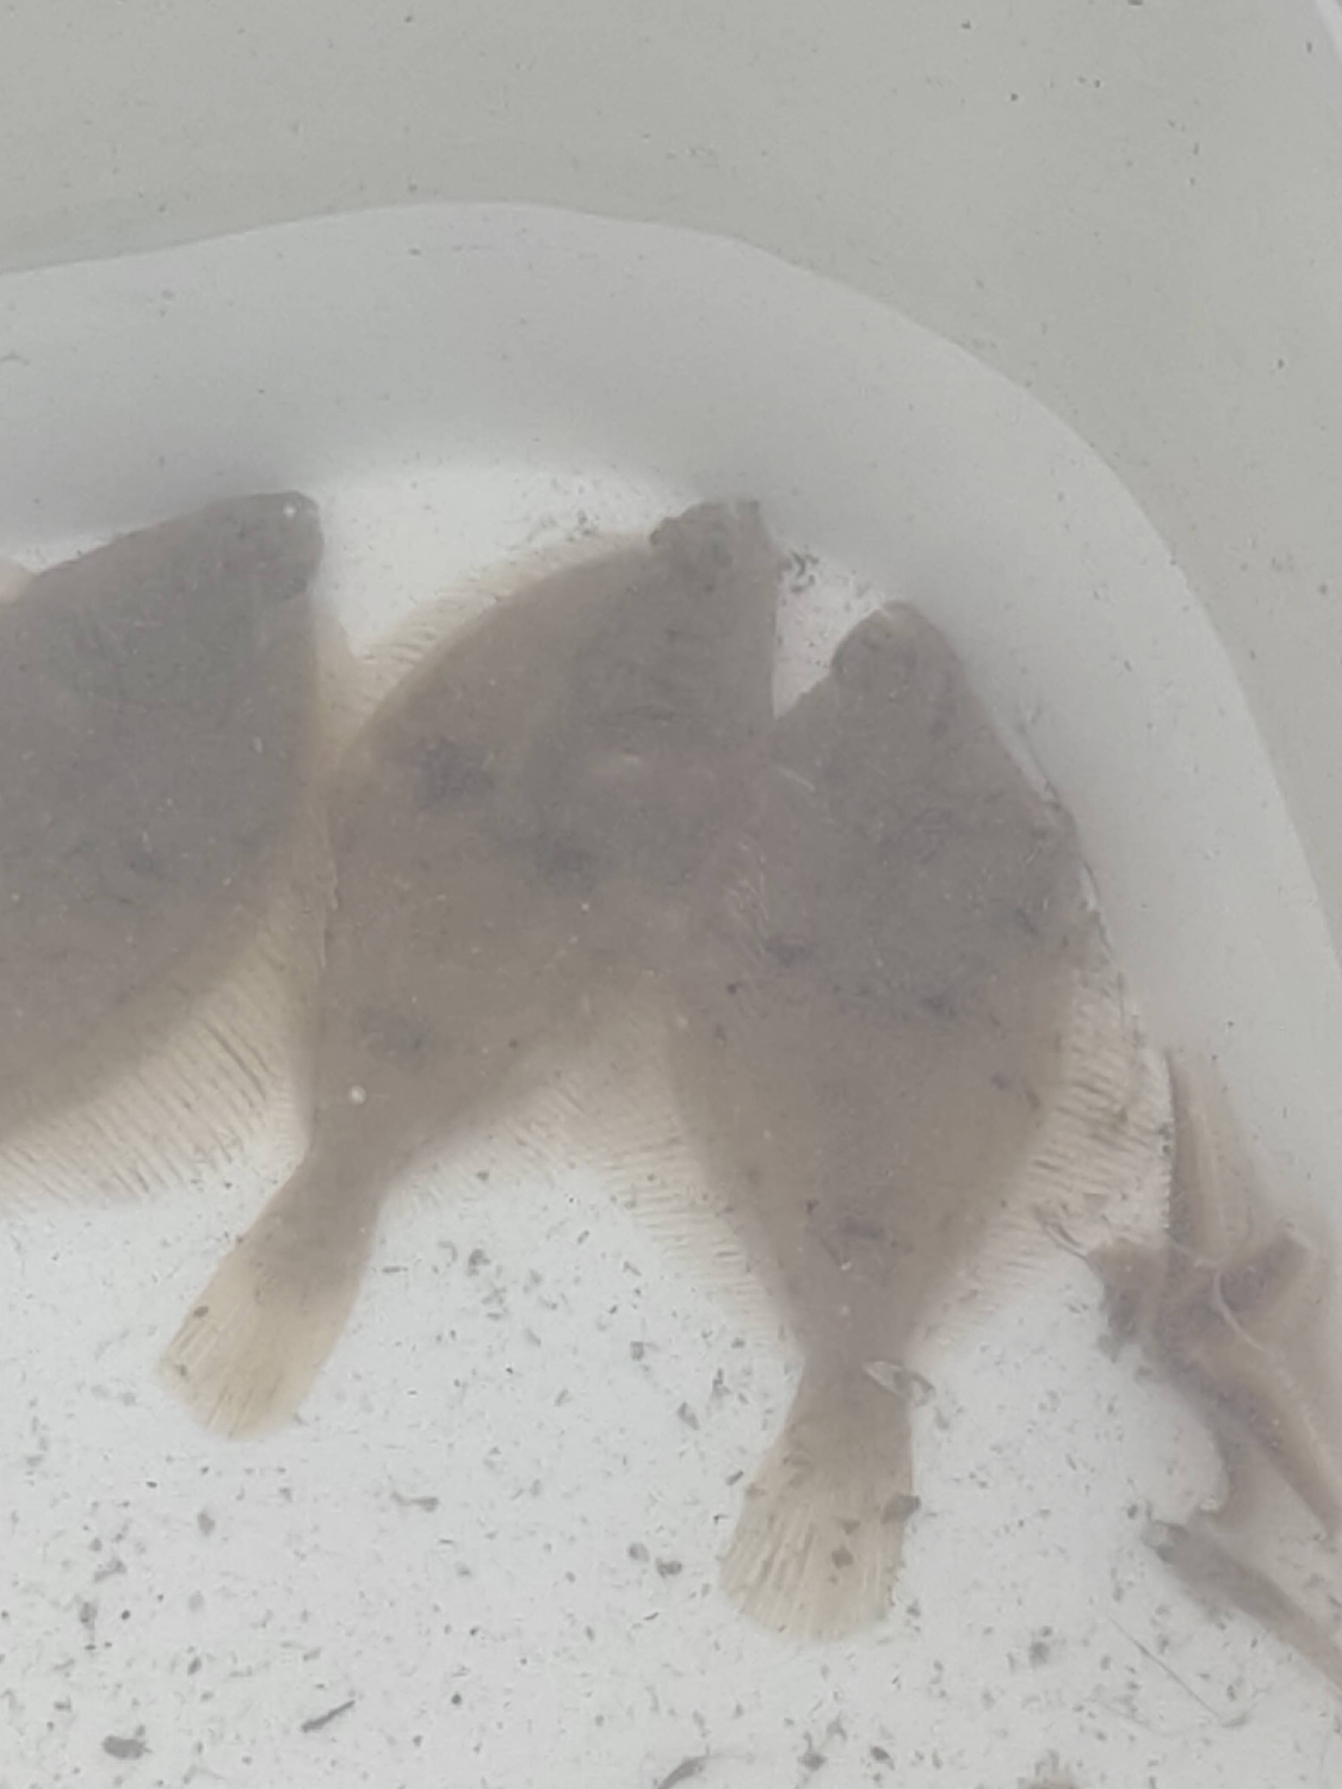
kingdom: Animalia
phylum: Chordata
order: Pleuronectiformes
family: Pleuronectidae
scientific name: Pleuronectidae
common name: Rødspættefamilien
